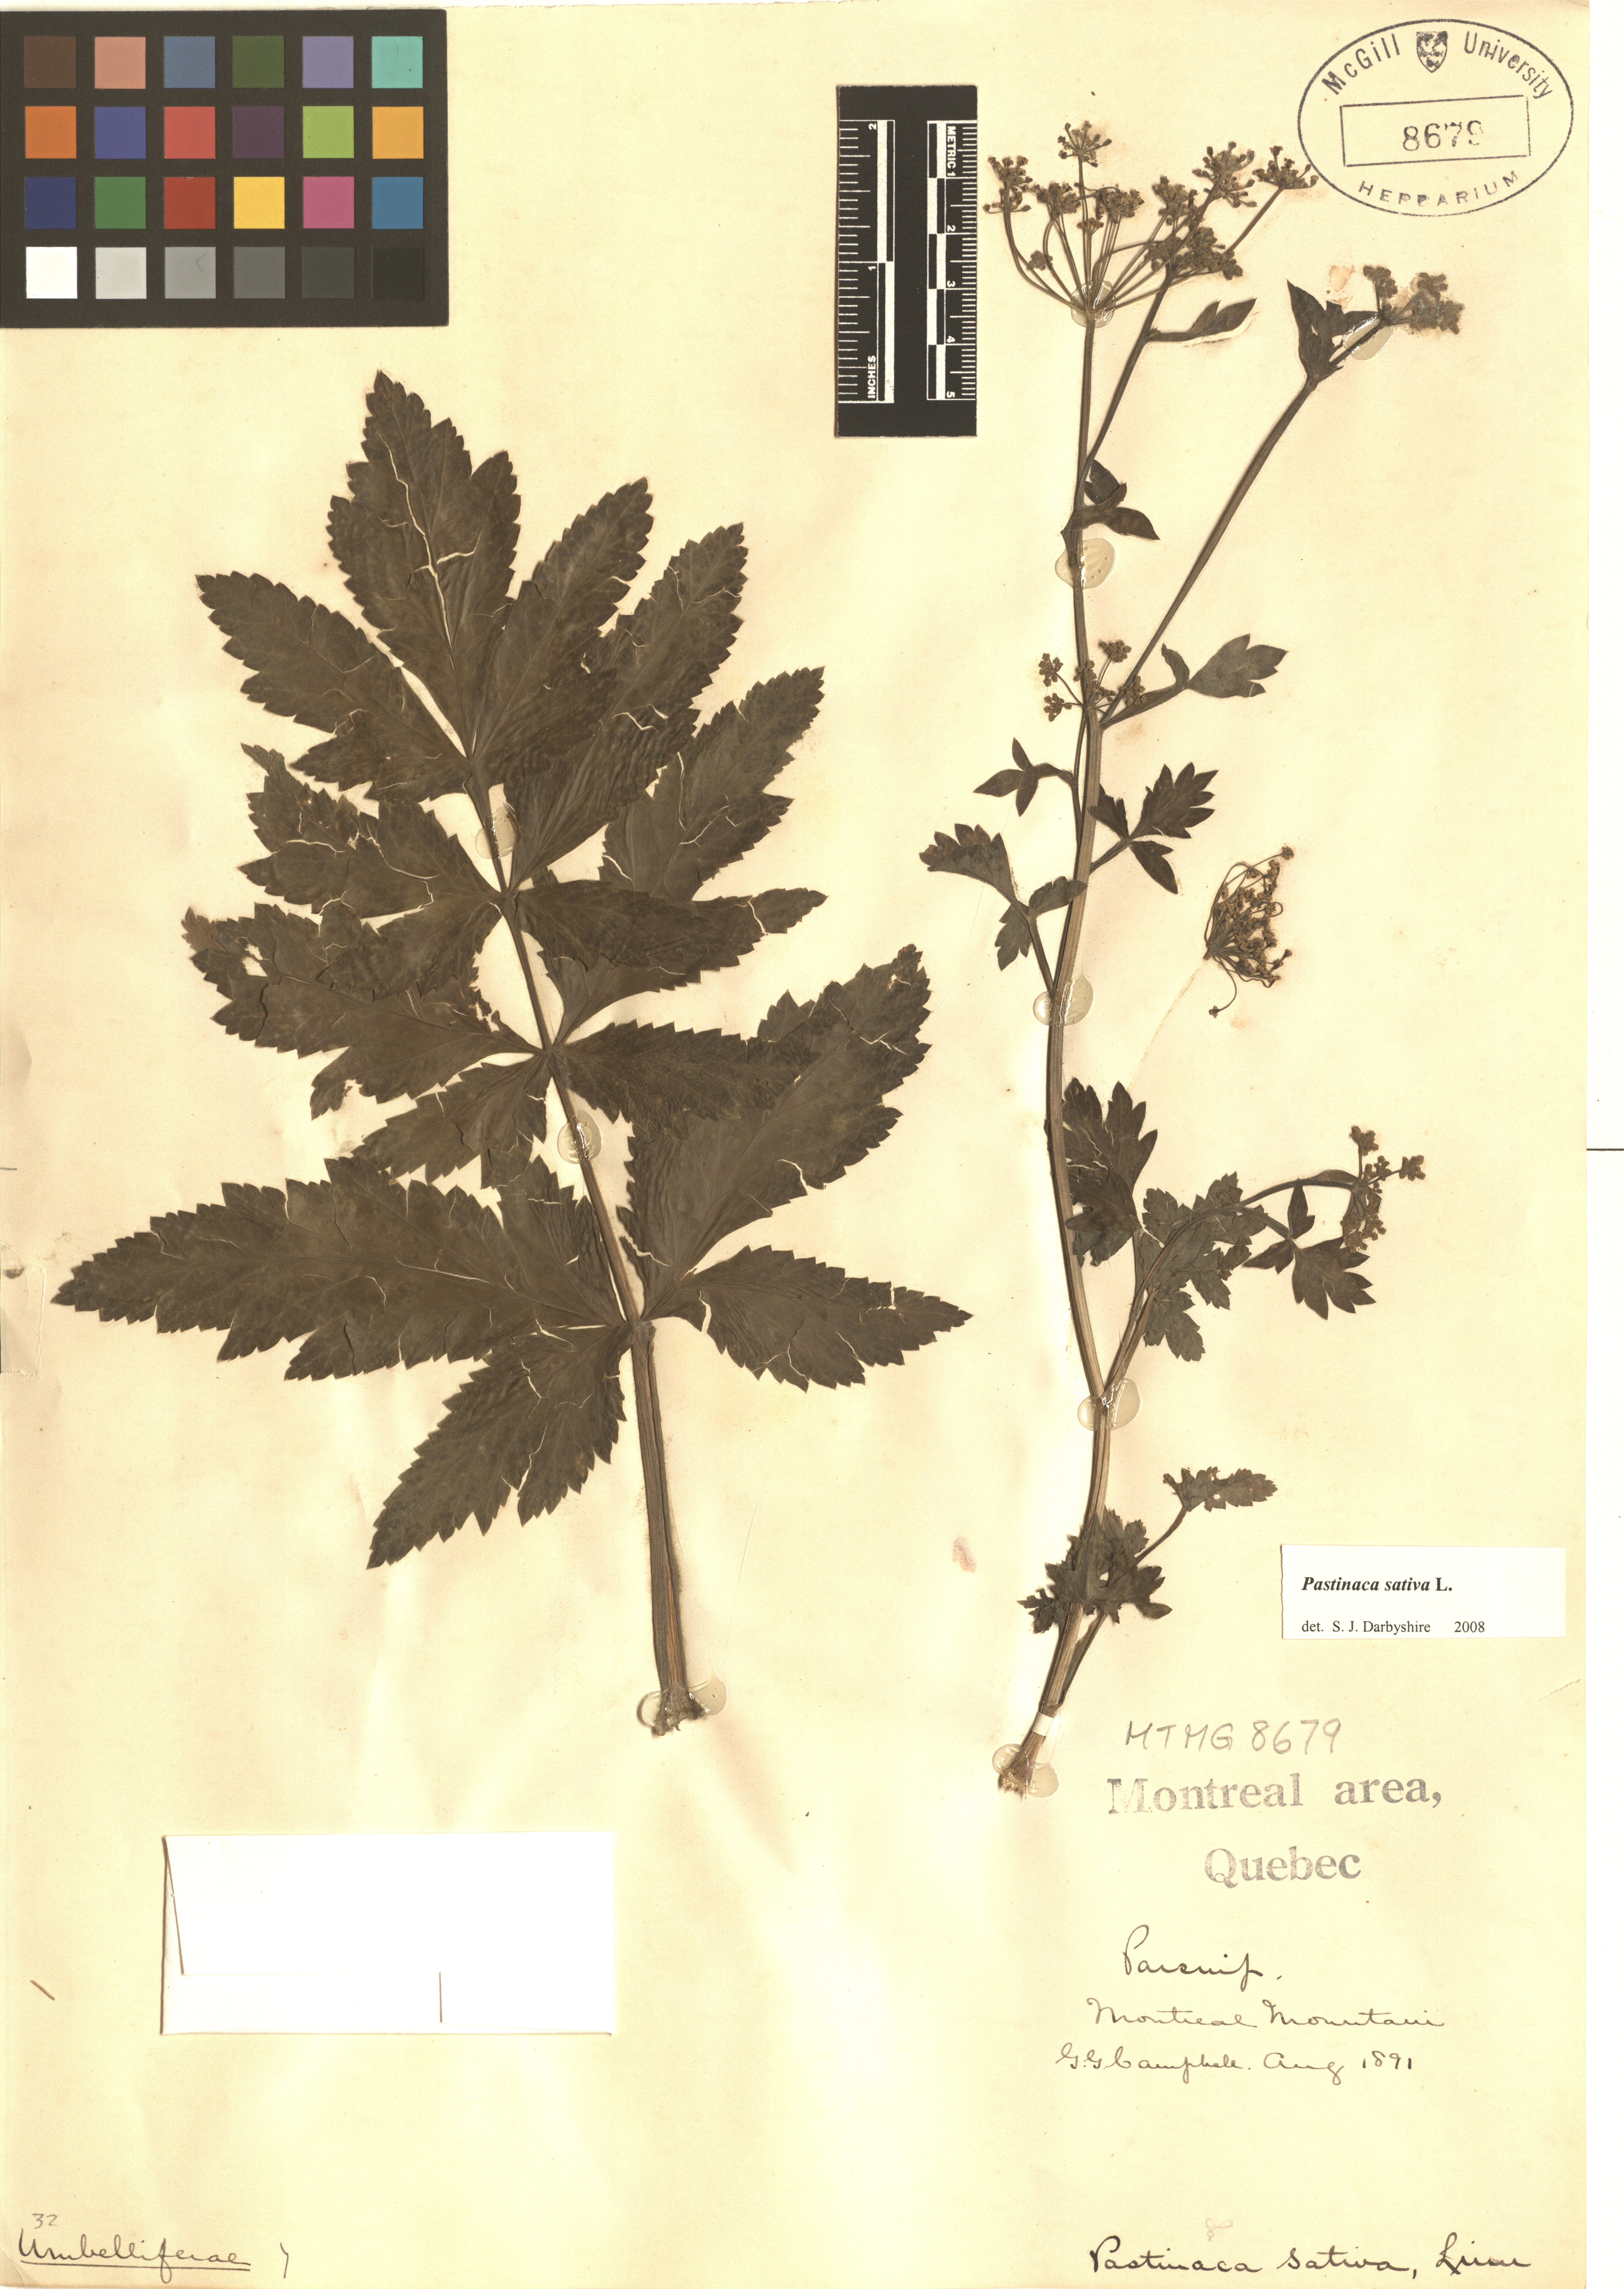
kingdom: Plantae
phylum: Tracheophyta
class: Magnoliopsida
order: Fagales
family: Juglandaceae
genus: Carya
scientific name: Carya glabra
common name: Pignut hickory
